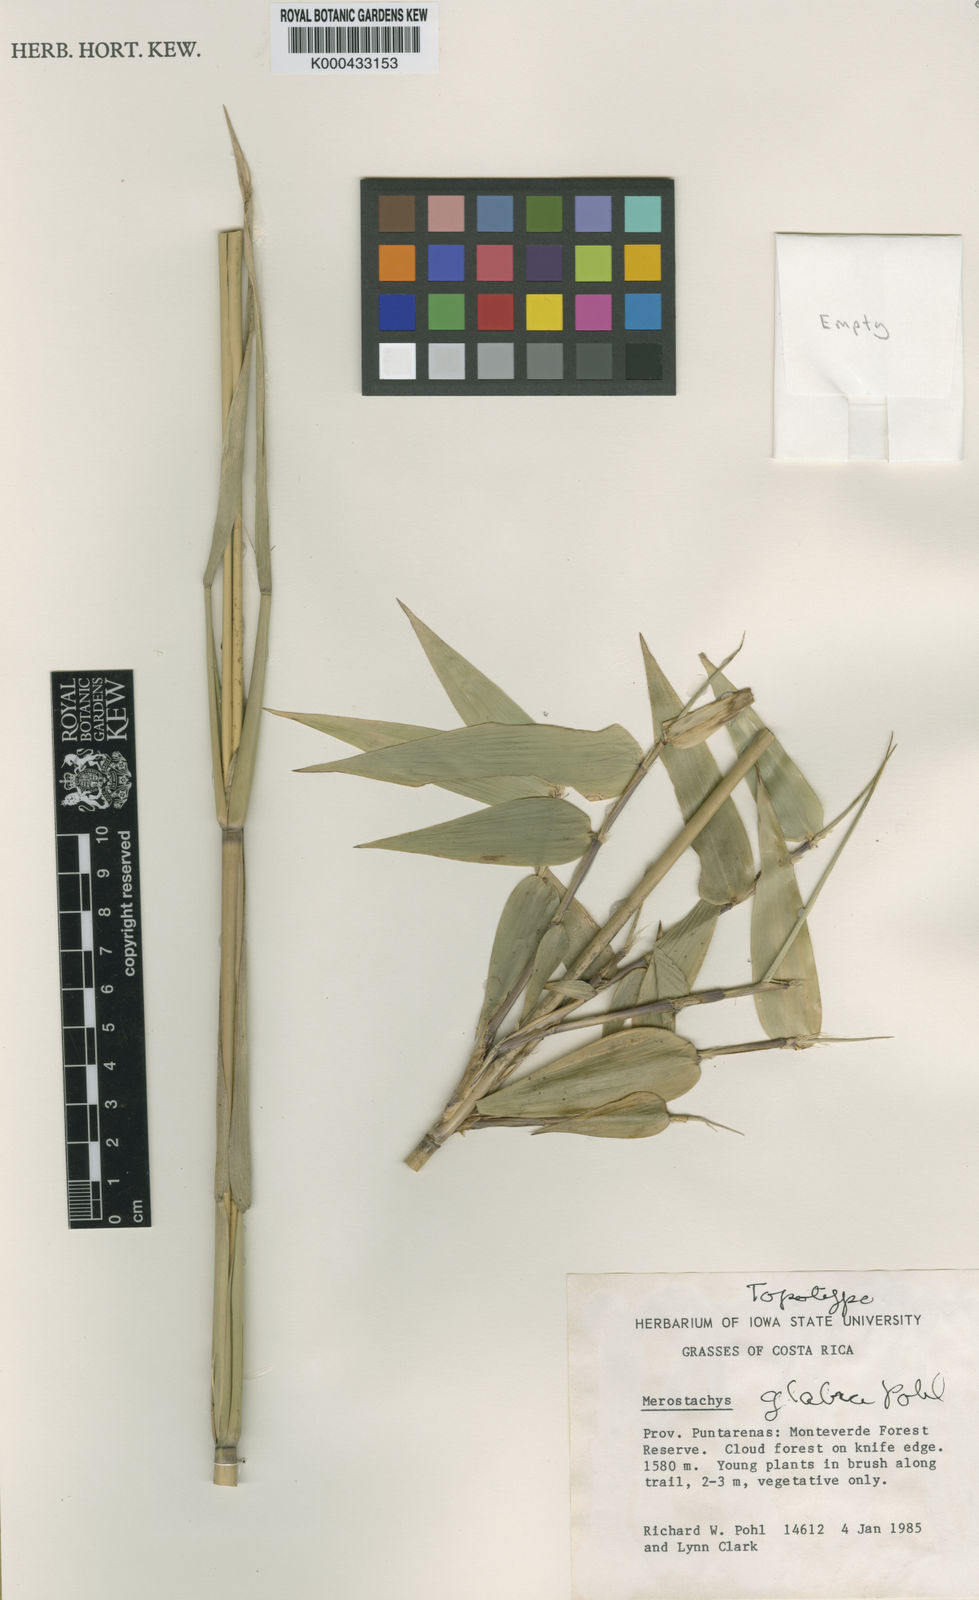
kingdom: Plantae
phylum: Tracheophyta
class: Liliopsida
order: Poales
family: Poaceae
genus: Merostachys
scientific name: Merostachys
